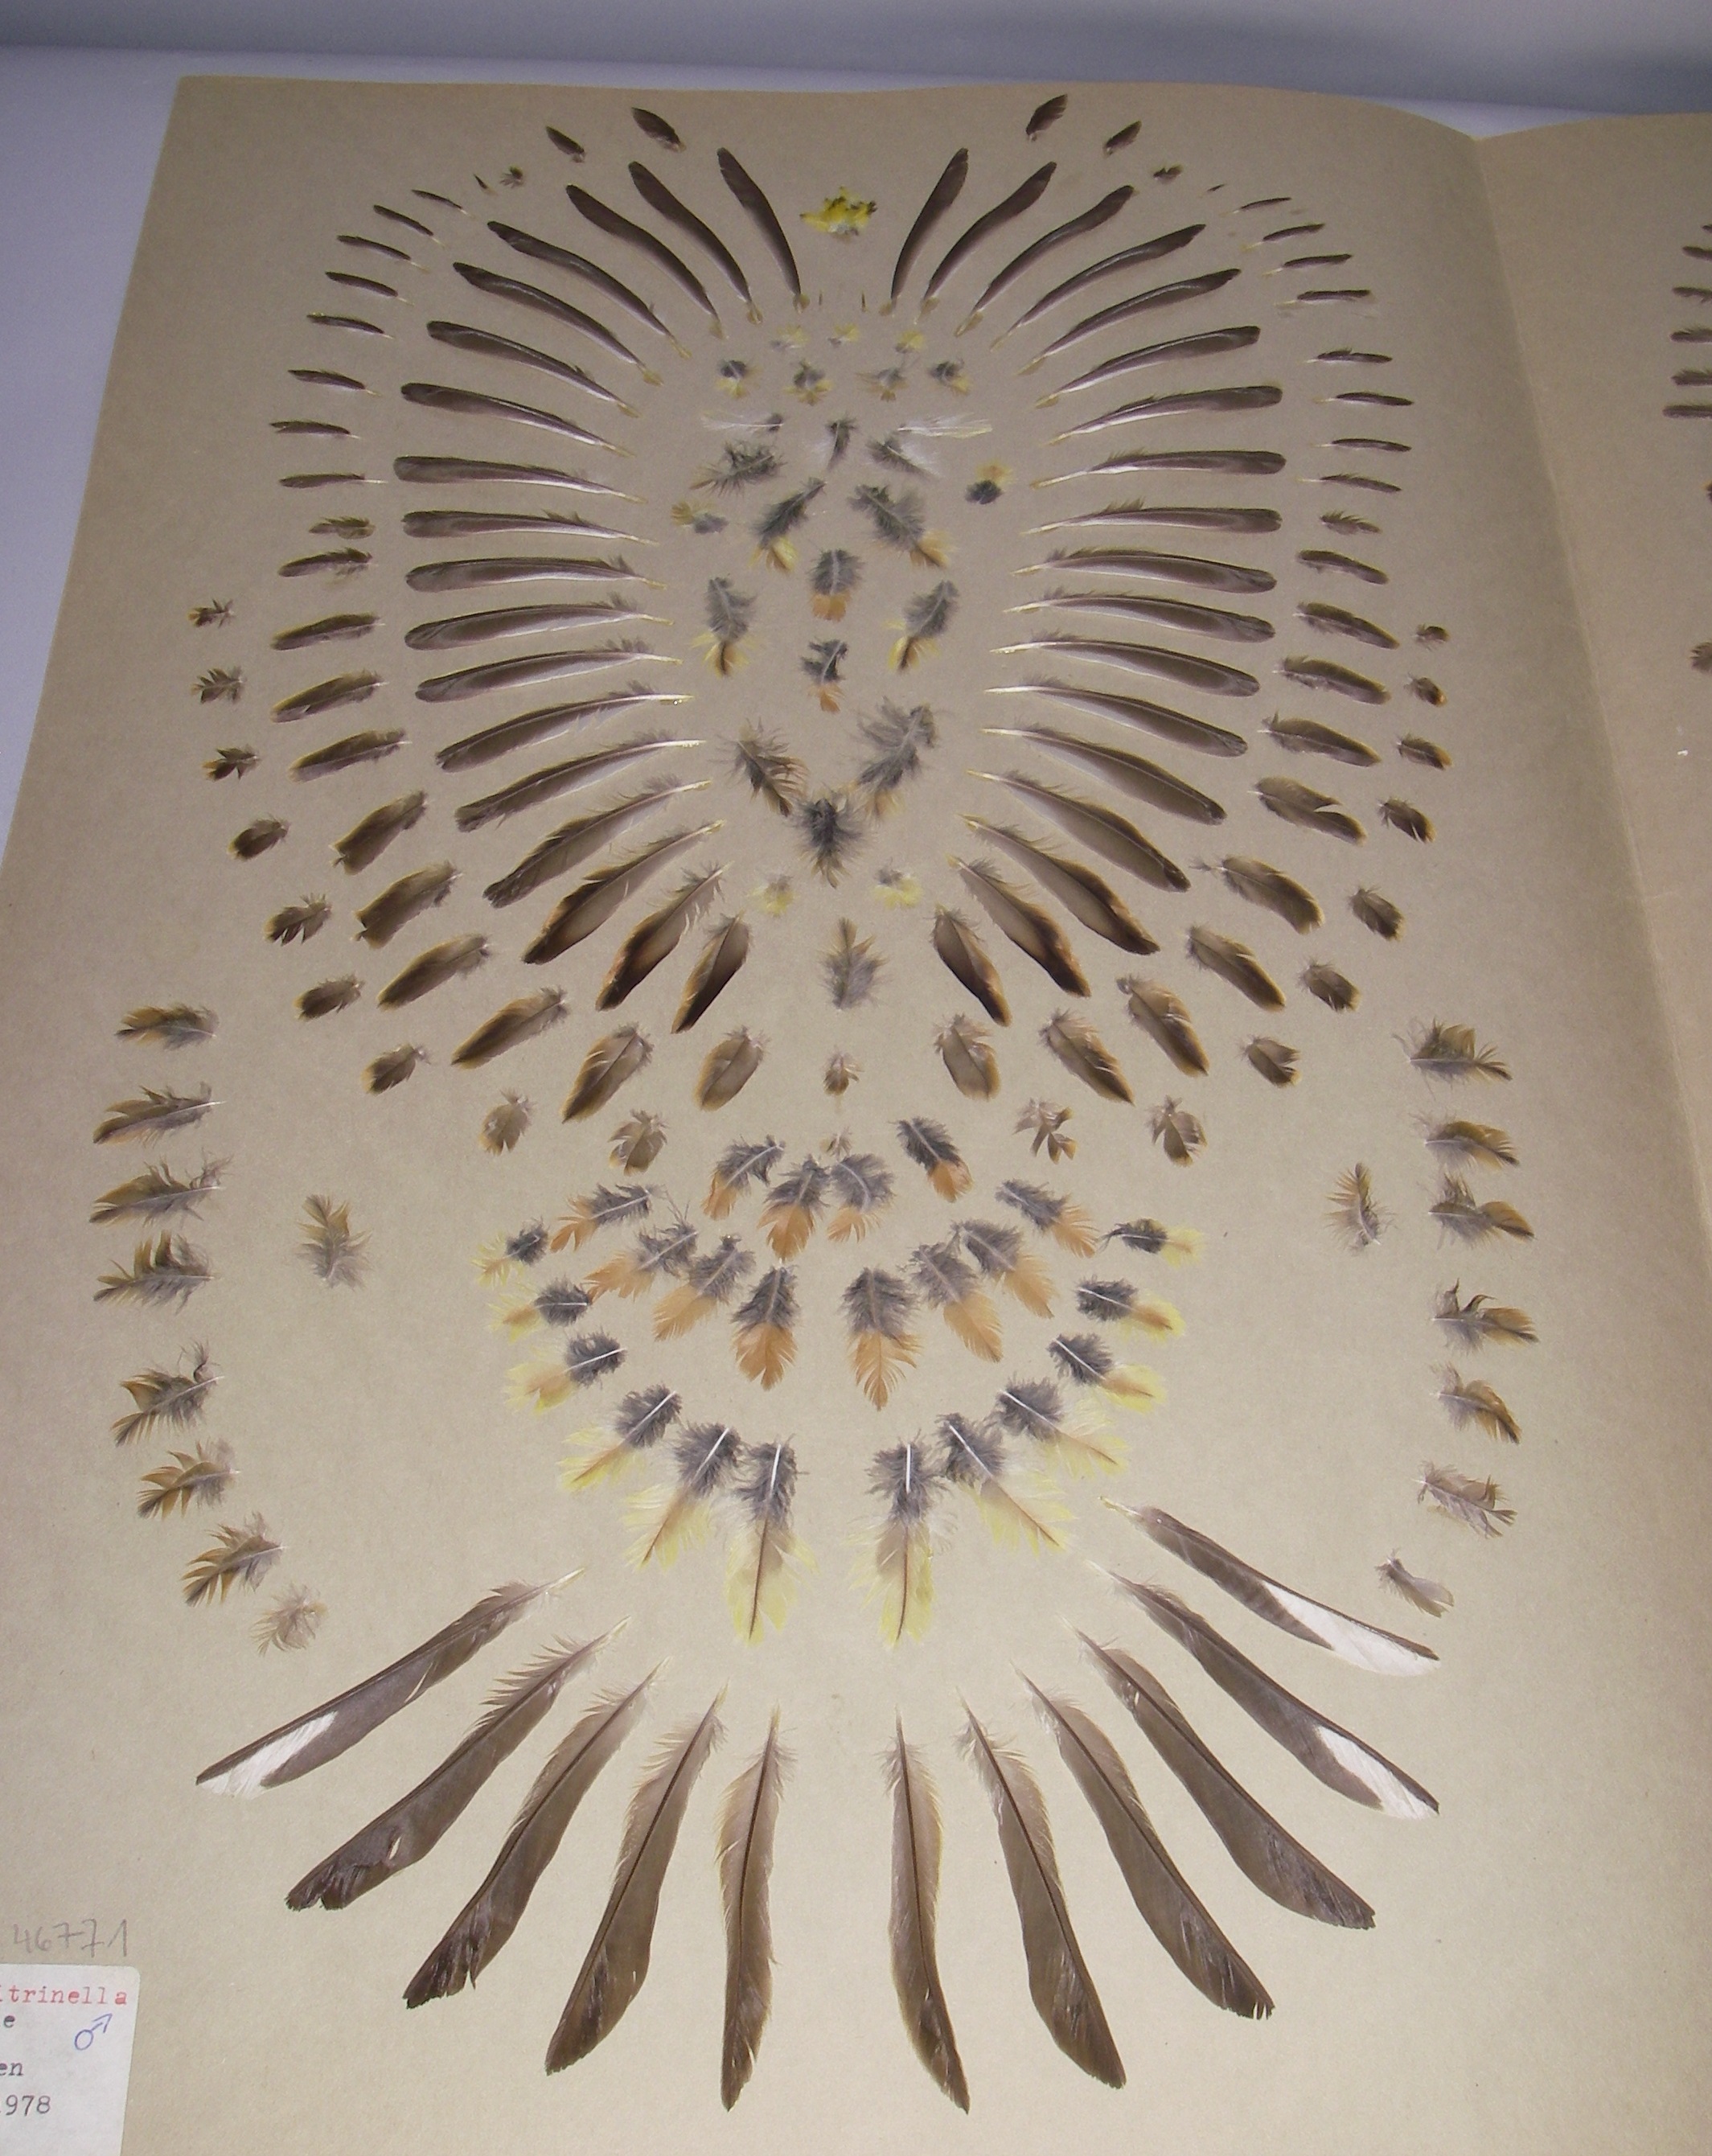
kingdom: Animalia
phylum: Chordata
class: Aves
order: Passeriformes
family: Emberizidae
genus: Emberiza
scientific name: Emberiza citrinella
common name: Yellowhammer
